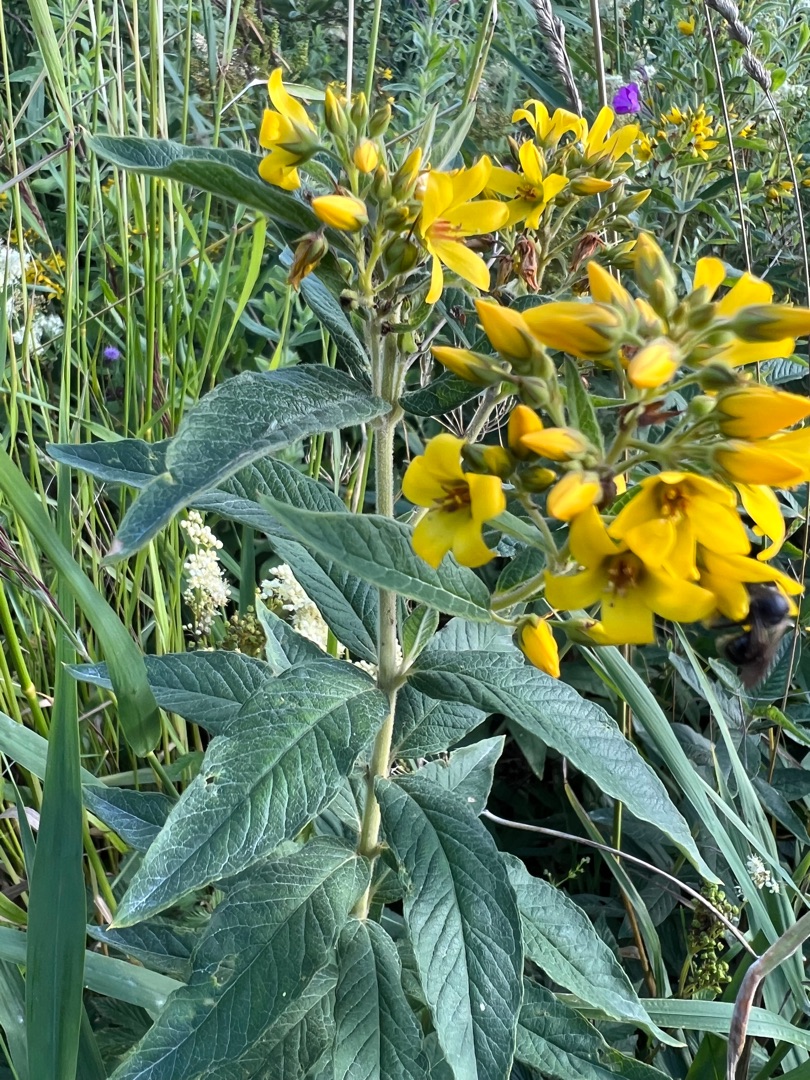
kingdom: Plantae
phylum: Tracheophyta
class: Magnoliopsida
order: Ericales
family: Primulaceae
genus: Lysimachia
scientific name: Lysimachia vulgaris
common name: Almindelig fredløs
